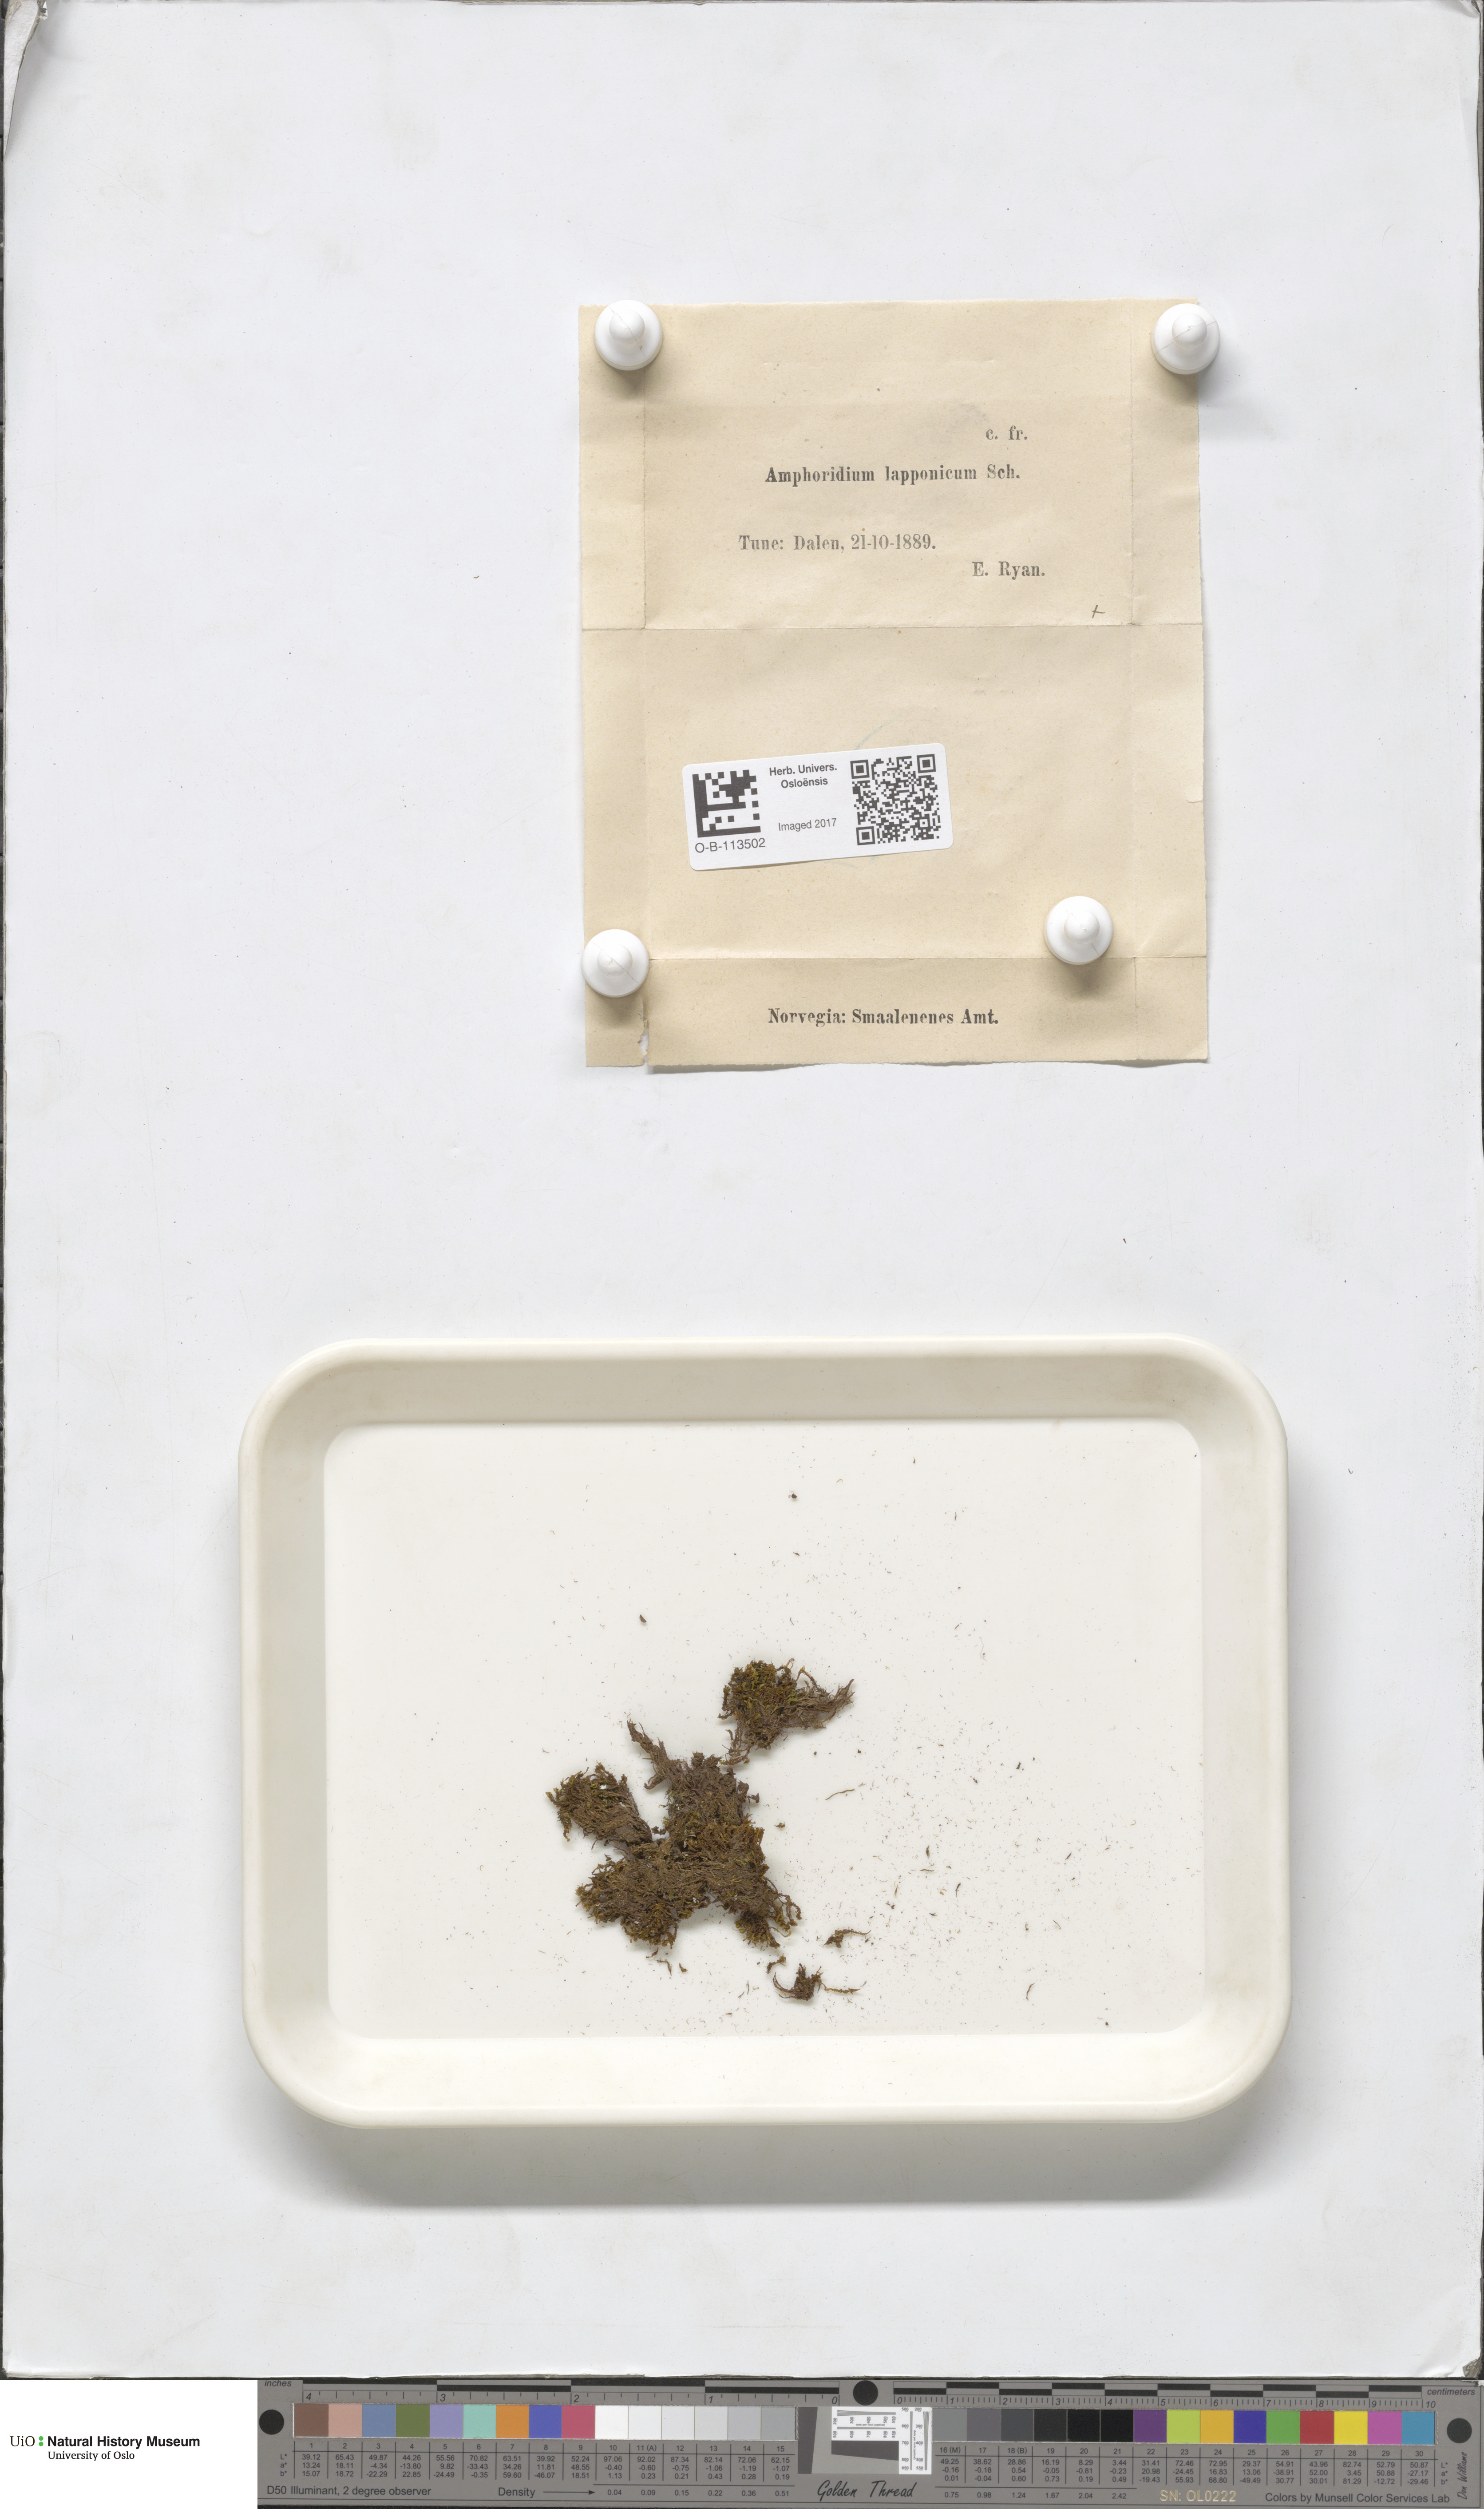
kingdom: Plantae
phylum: Bryophyta
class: Bryopsida
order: Dicranales
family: Amphidiaceae
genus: Amphidium
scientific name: Amphidium lapponicum
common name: Lapland yoke moss
